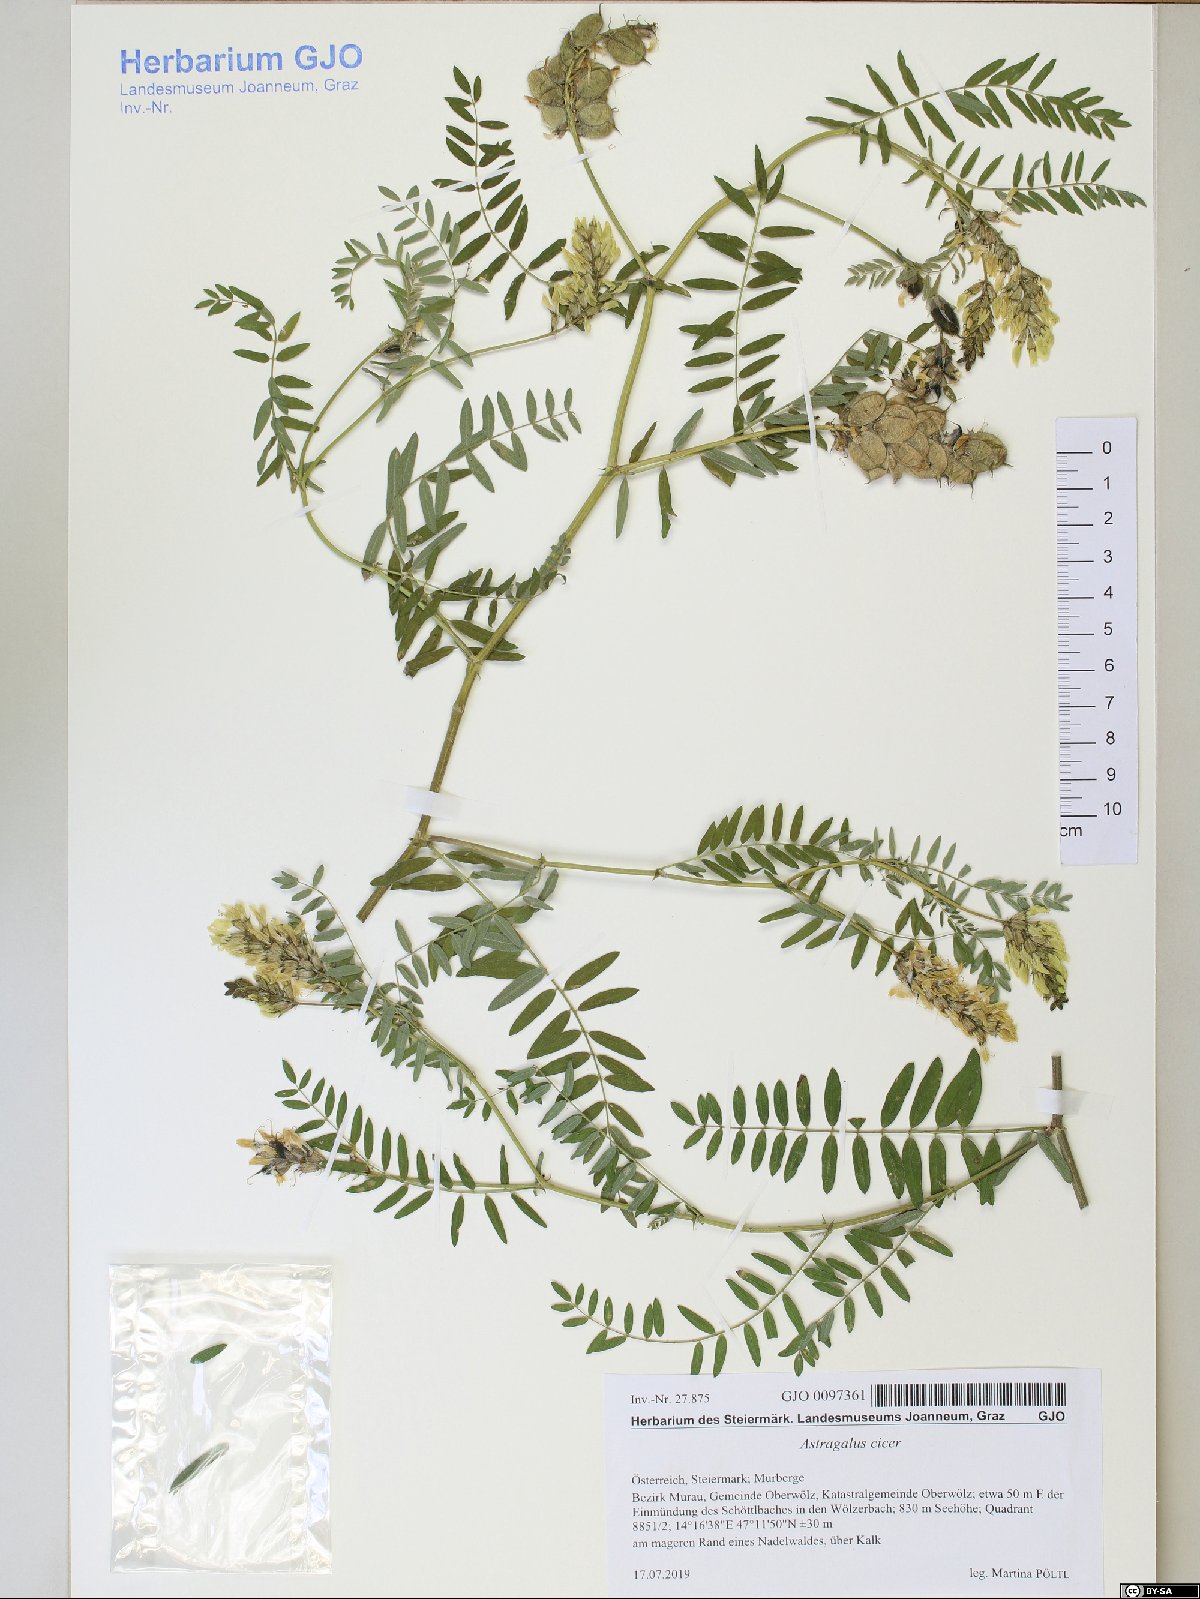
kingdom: Plantae
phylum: Tracheophyta
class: Magnoliopsida
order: Fabales
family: Fabaceae
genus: Astragalus
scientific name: Astragalus cicer
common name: Chick-pea milk-vetch
